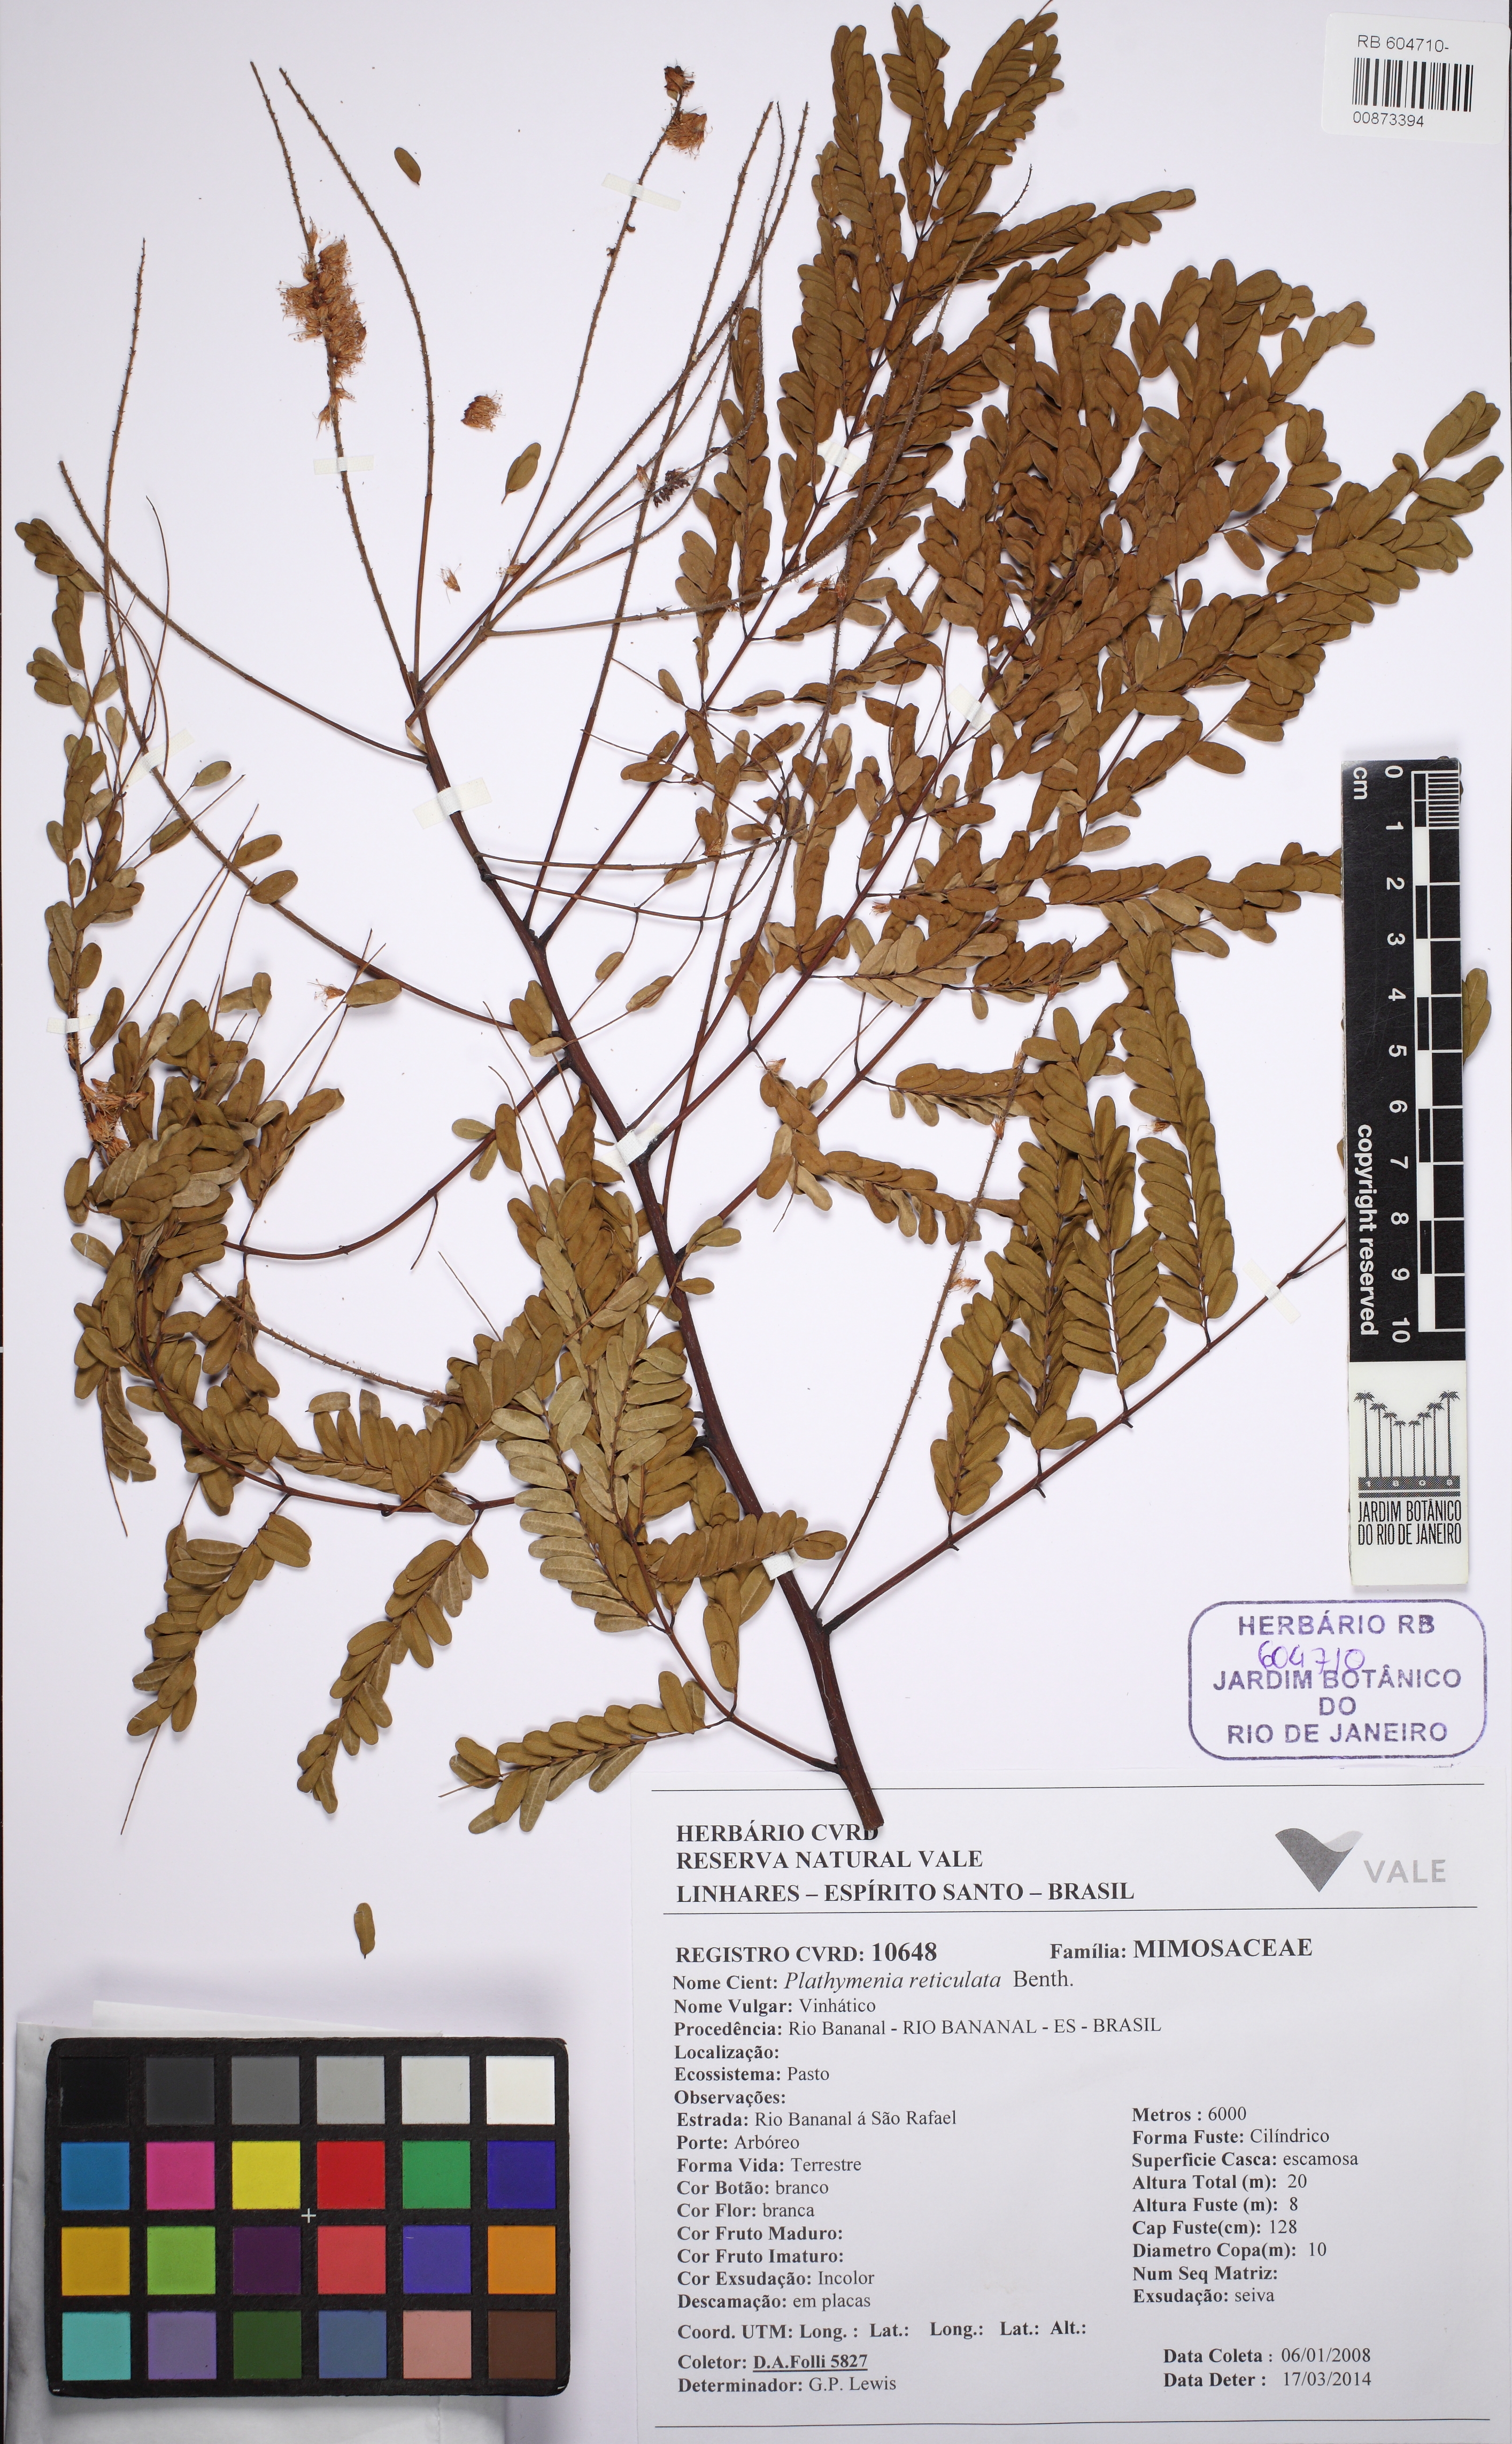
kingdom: Plantae
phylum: Tracheophyta
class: Magnoliopsida
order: Fabales
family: Fabaceae
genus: Plathymenia
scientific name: Plathymenia reticulata
